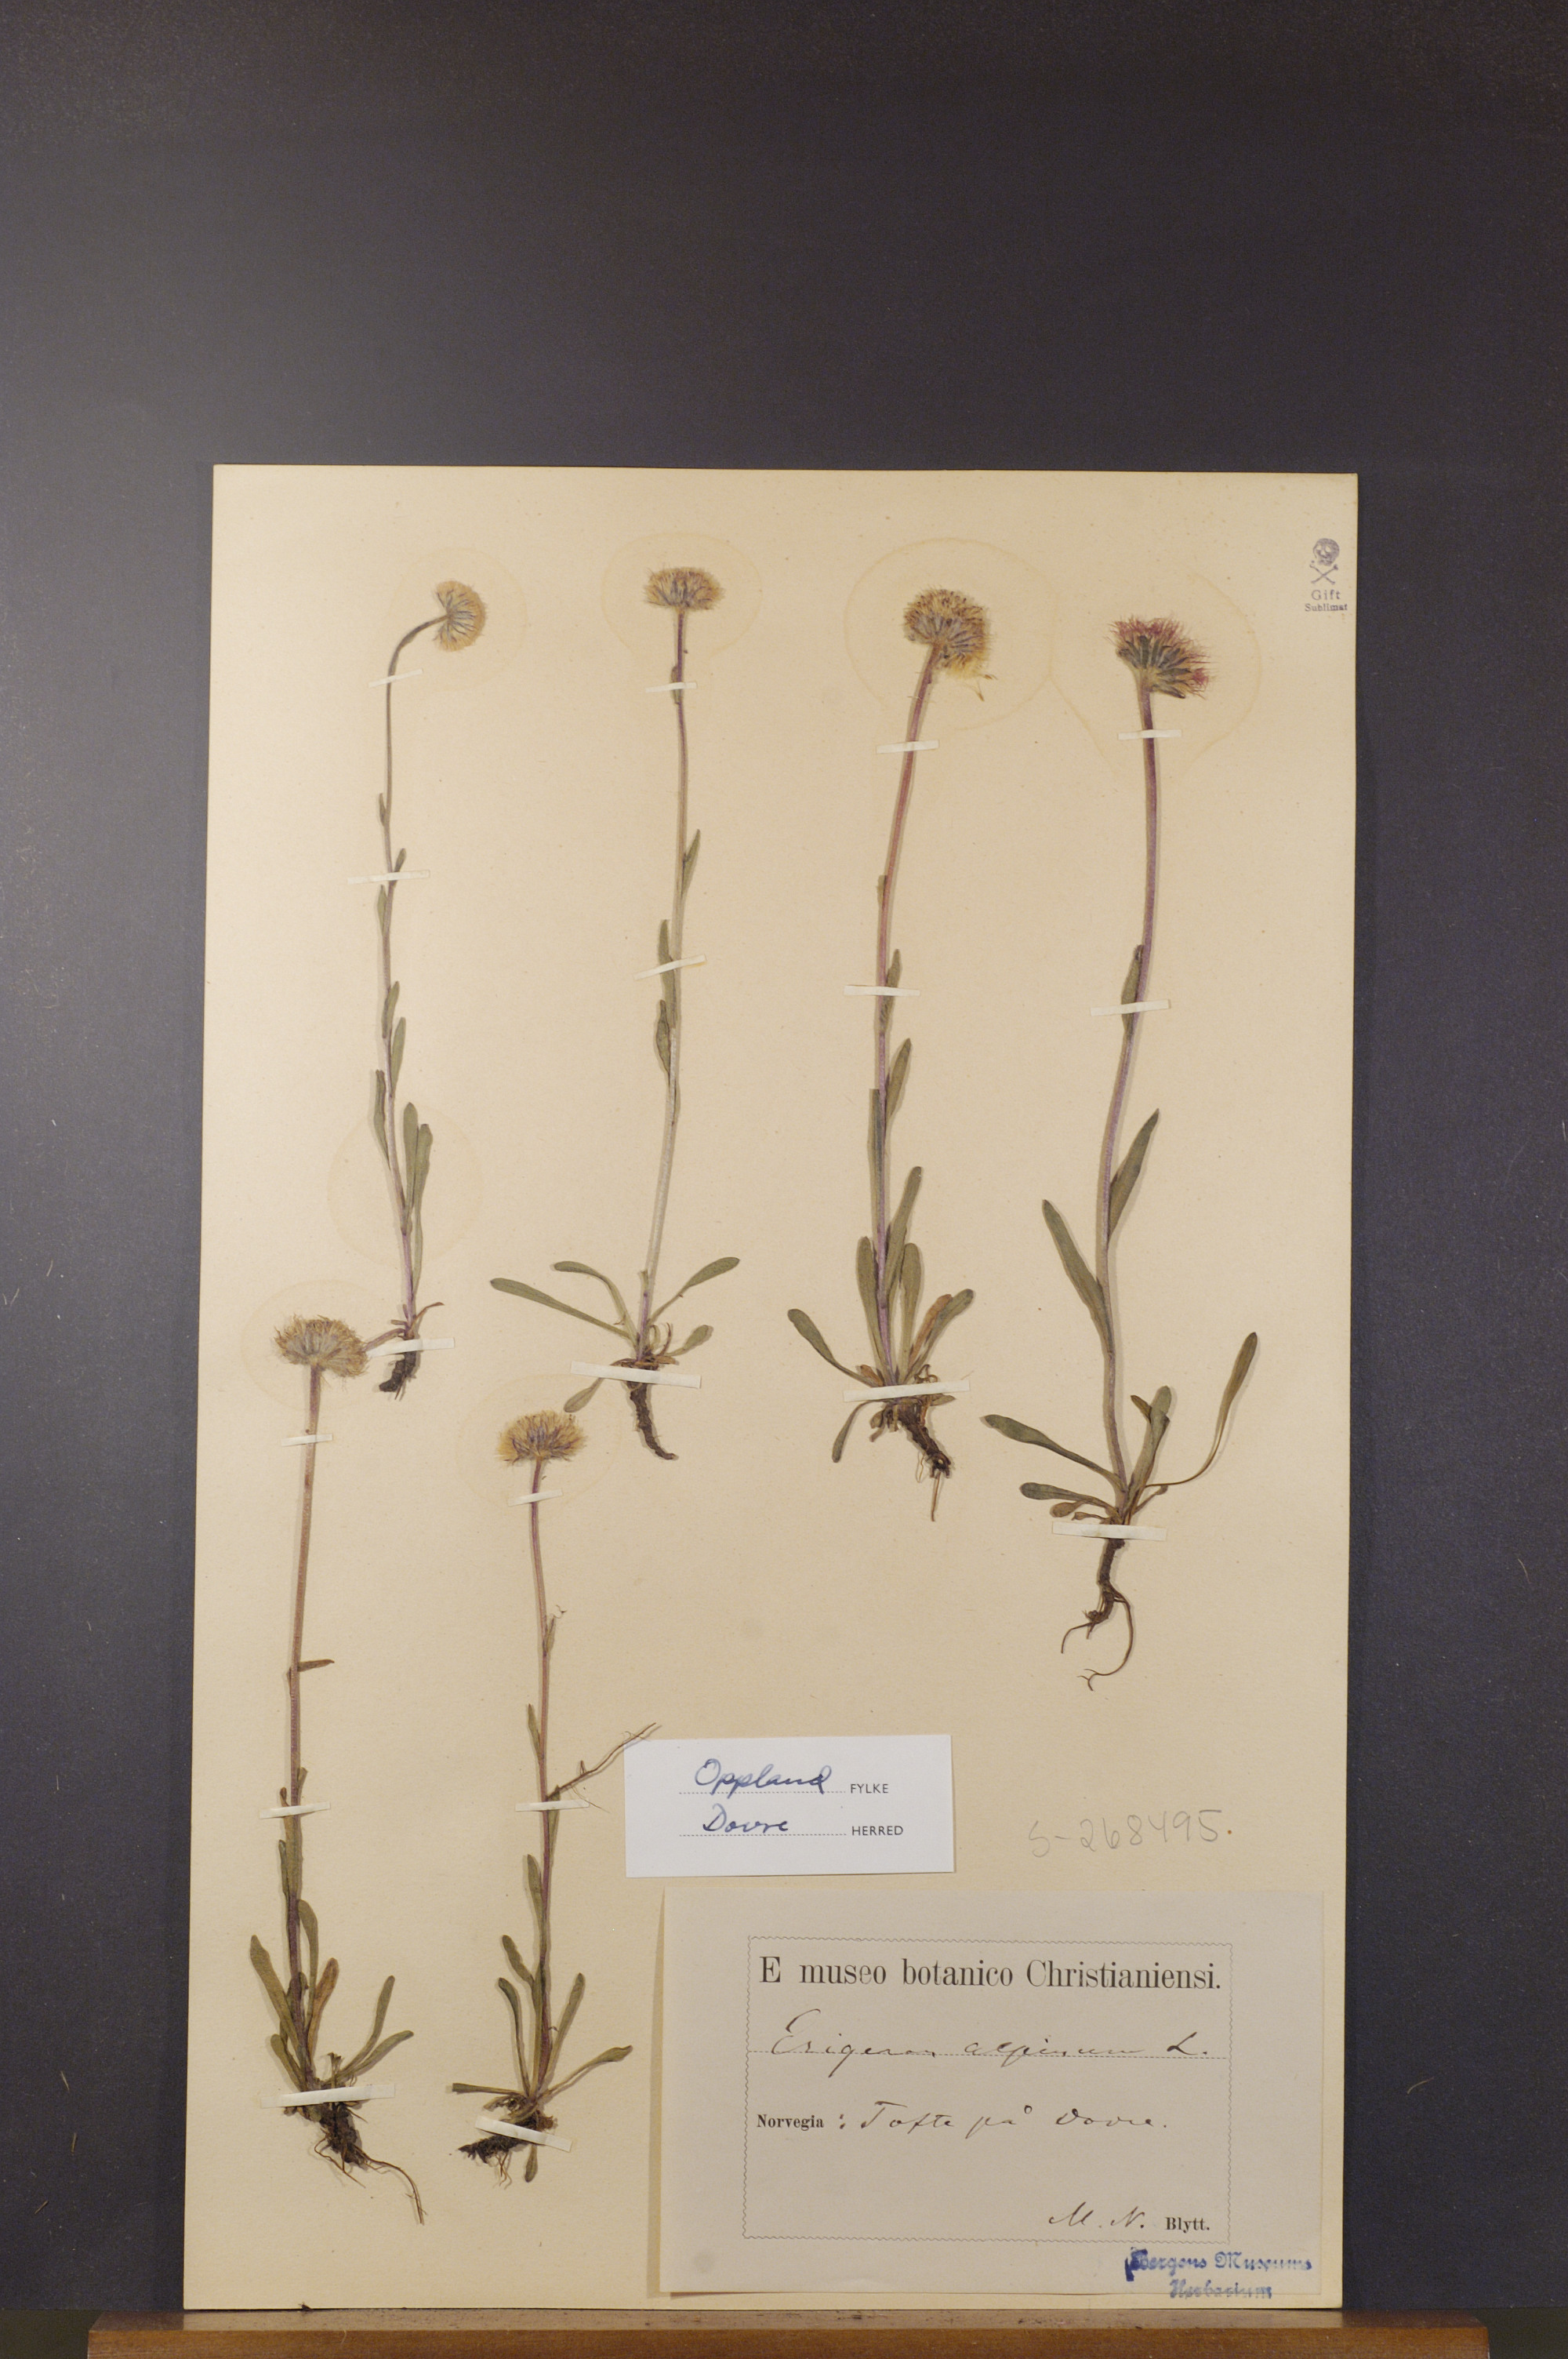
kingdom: Plantae
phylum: Tracheophyta
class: Magnoliopsida
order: Asterales
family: Asteraceae
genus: Erigeron
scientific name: Erigeron alpinus
